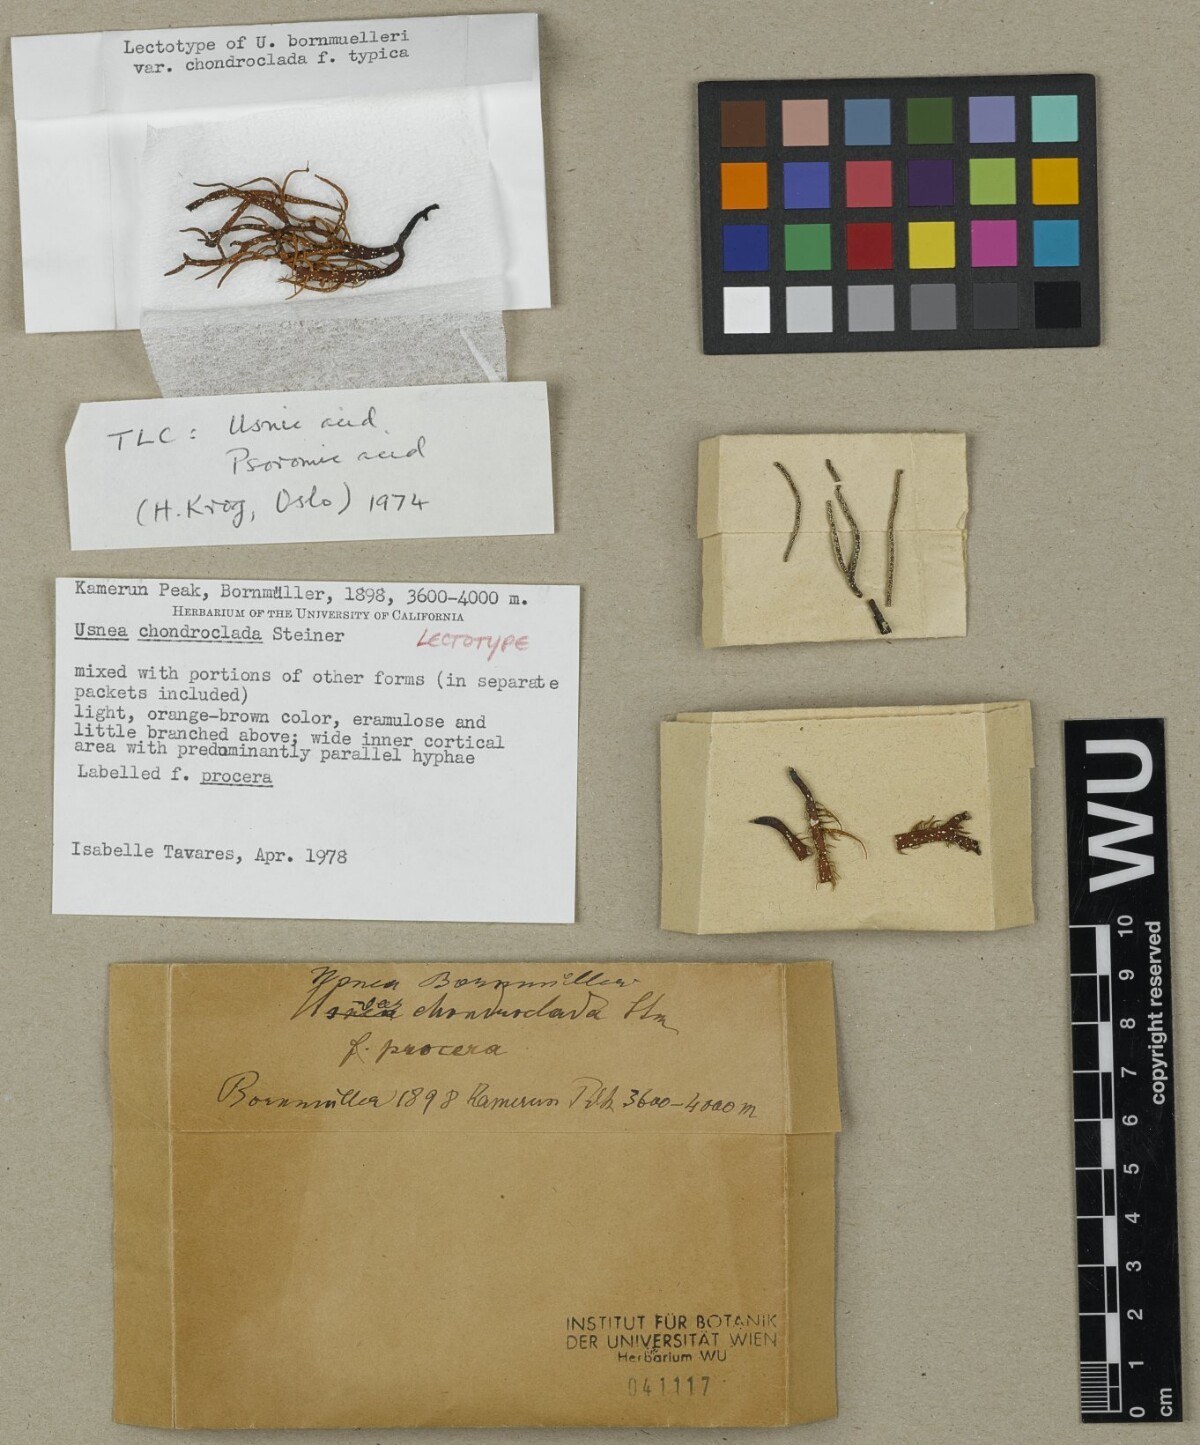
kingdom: Fungi
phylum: Ascomycota
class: Lecanoromycetes
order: Lecanorales
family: Parmeliaceae
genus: Usnea
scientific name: Usnea bornmuelleri
